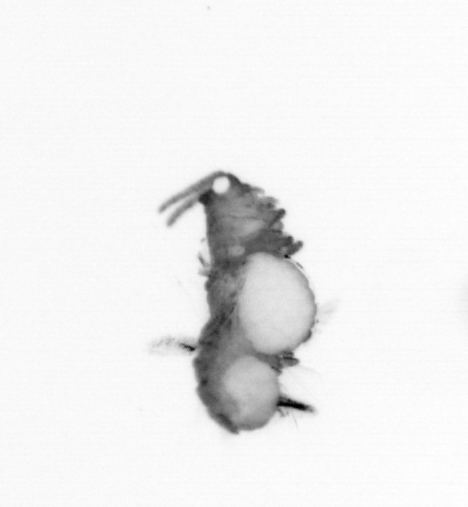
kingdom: Animalia
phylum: Annelida
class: Polychaeta
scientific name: Polychaeta
